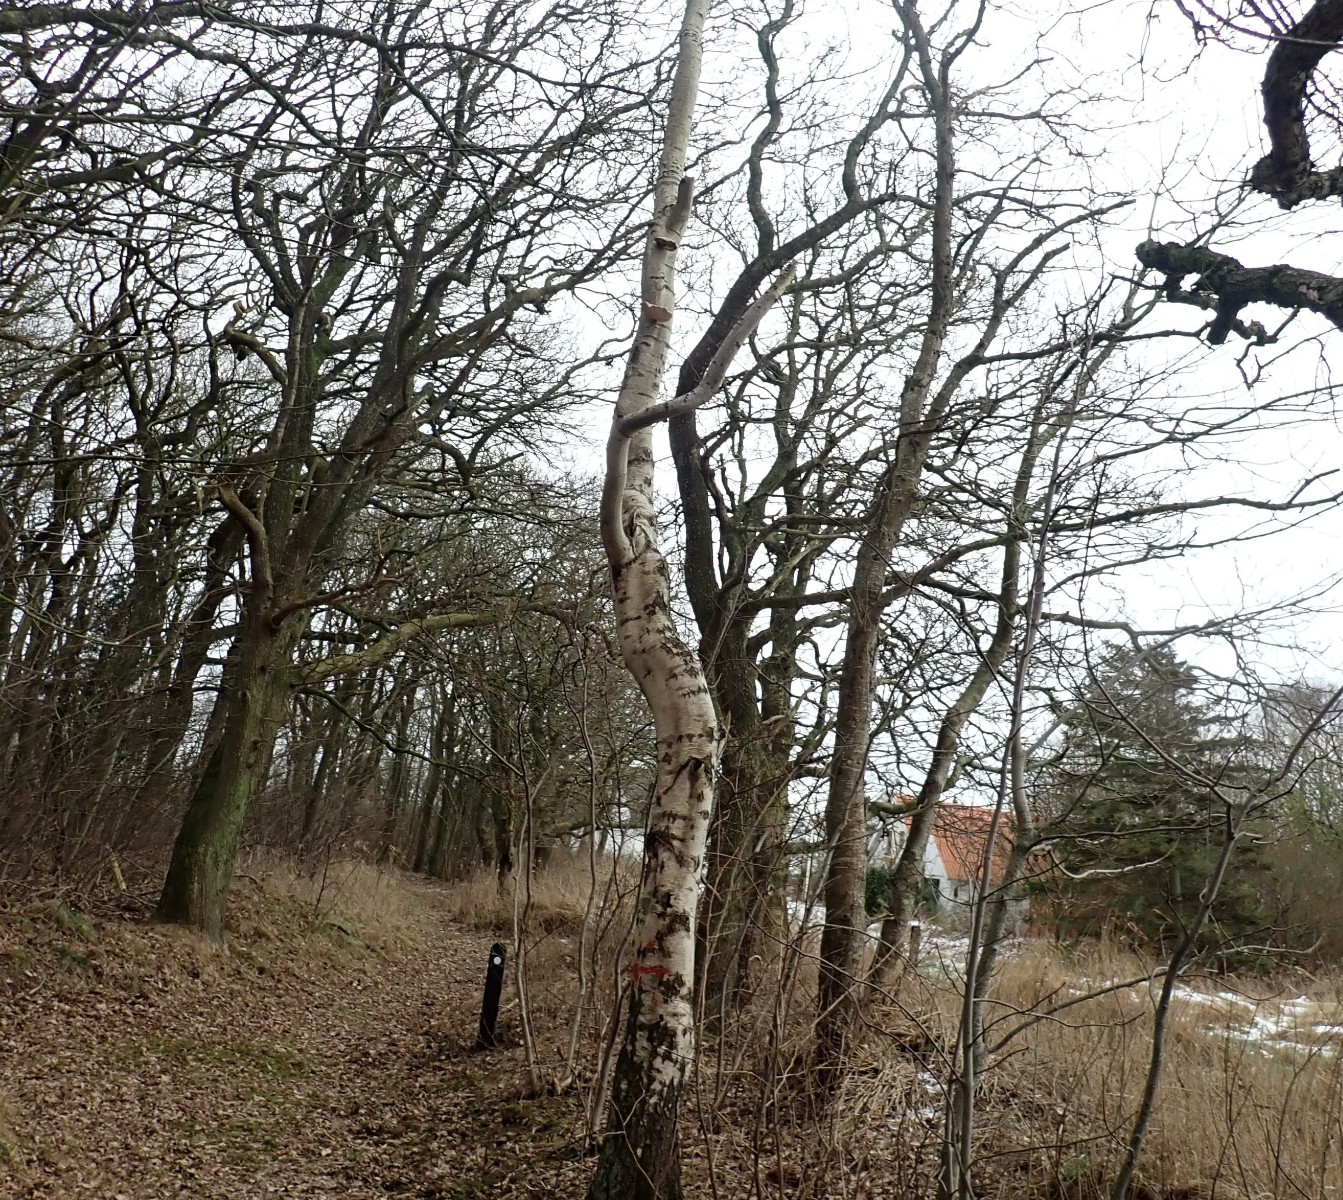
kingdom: Fungi
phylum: Basidiomycota
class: Agaricomycetes
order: Polyporales
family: Fomitopsidaceae
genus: Fomitopsis
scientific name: Fomitopsis betulina
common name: birkeporesvamp
